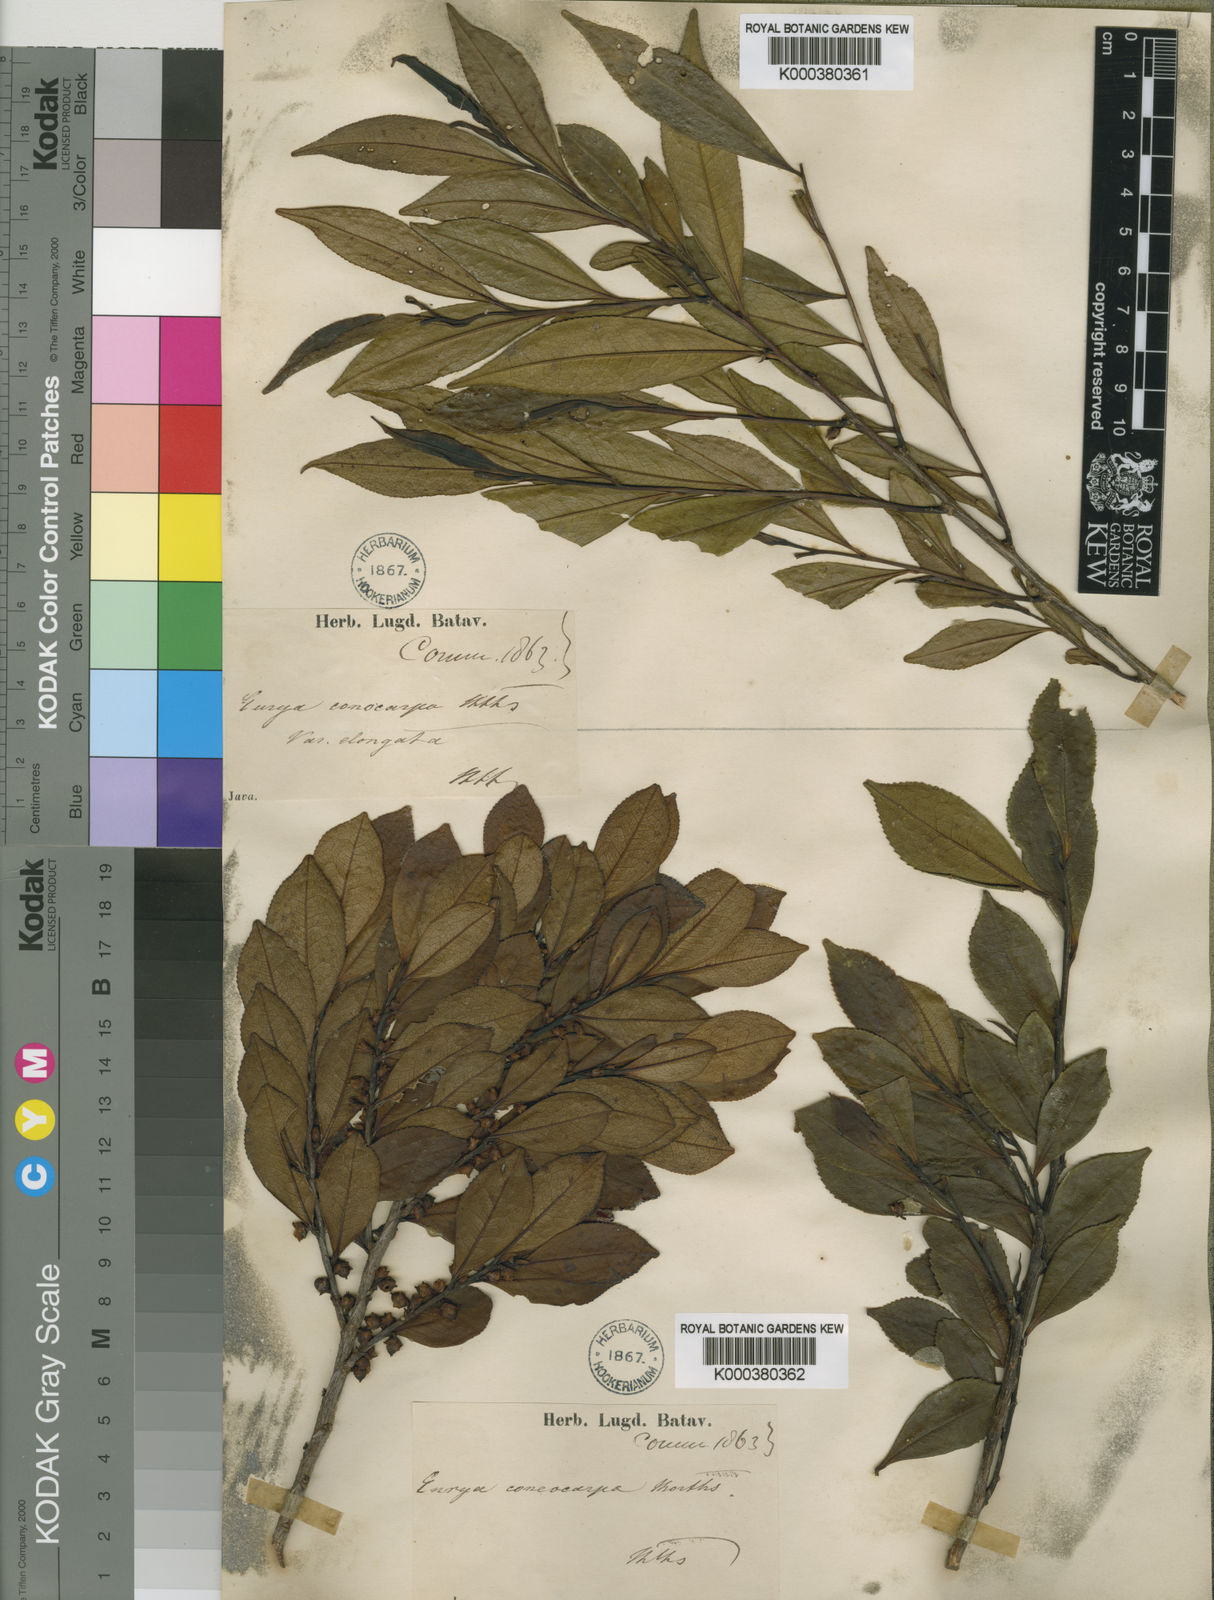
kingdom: Plantae
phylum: Tracheophyta
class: Magnoliopsida
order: Ericales
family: Pentaphylacaceae
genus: Eurya
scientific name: Eurya obovata
